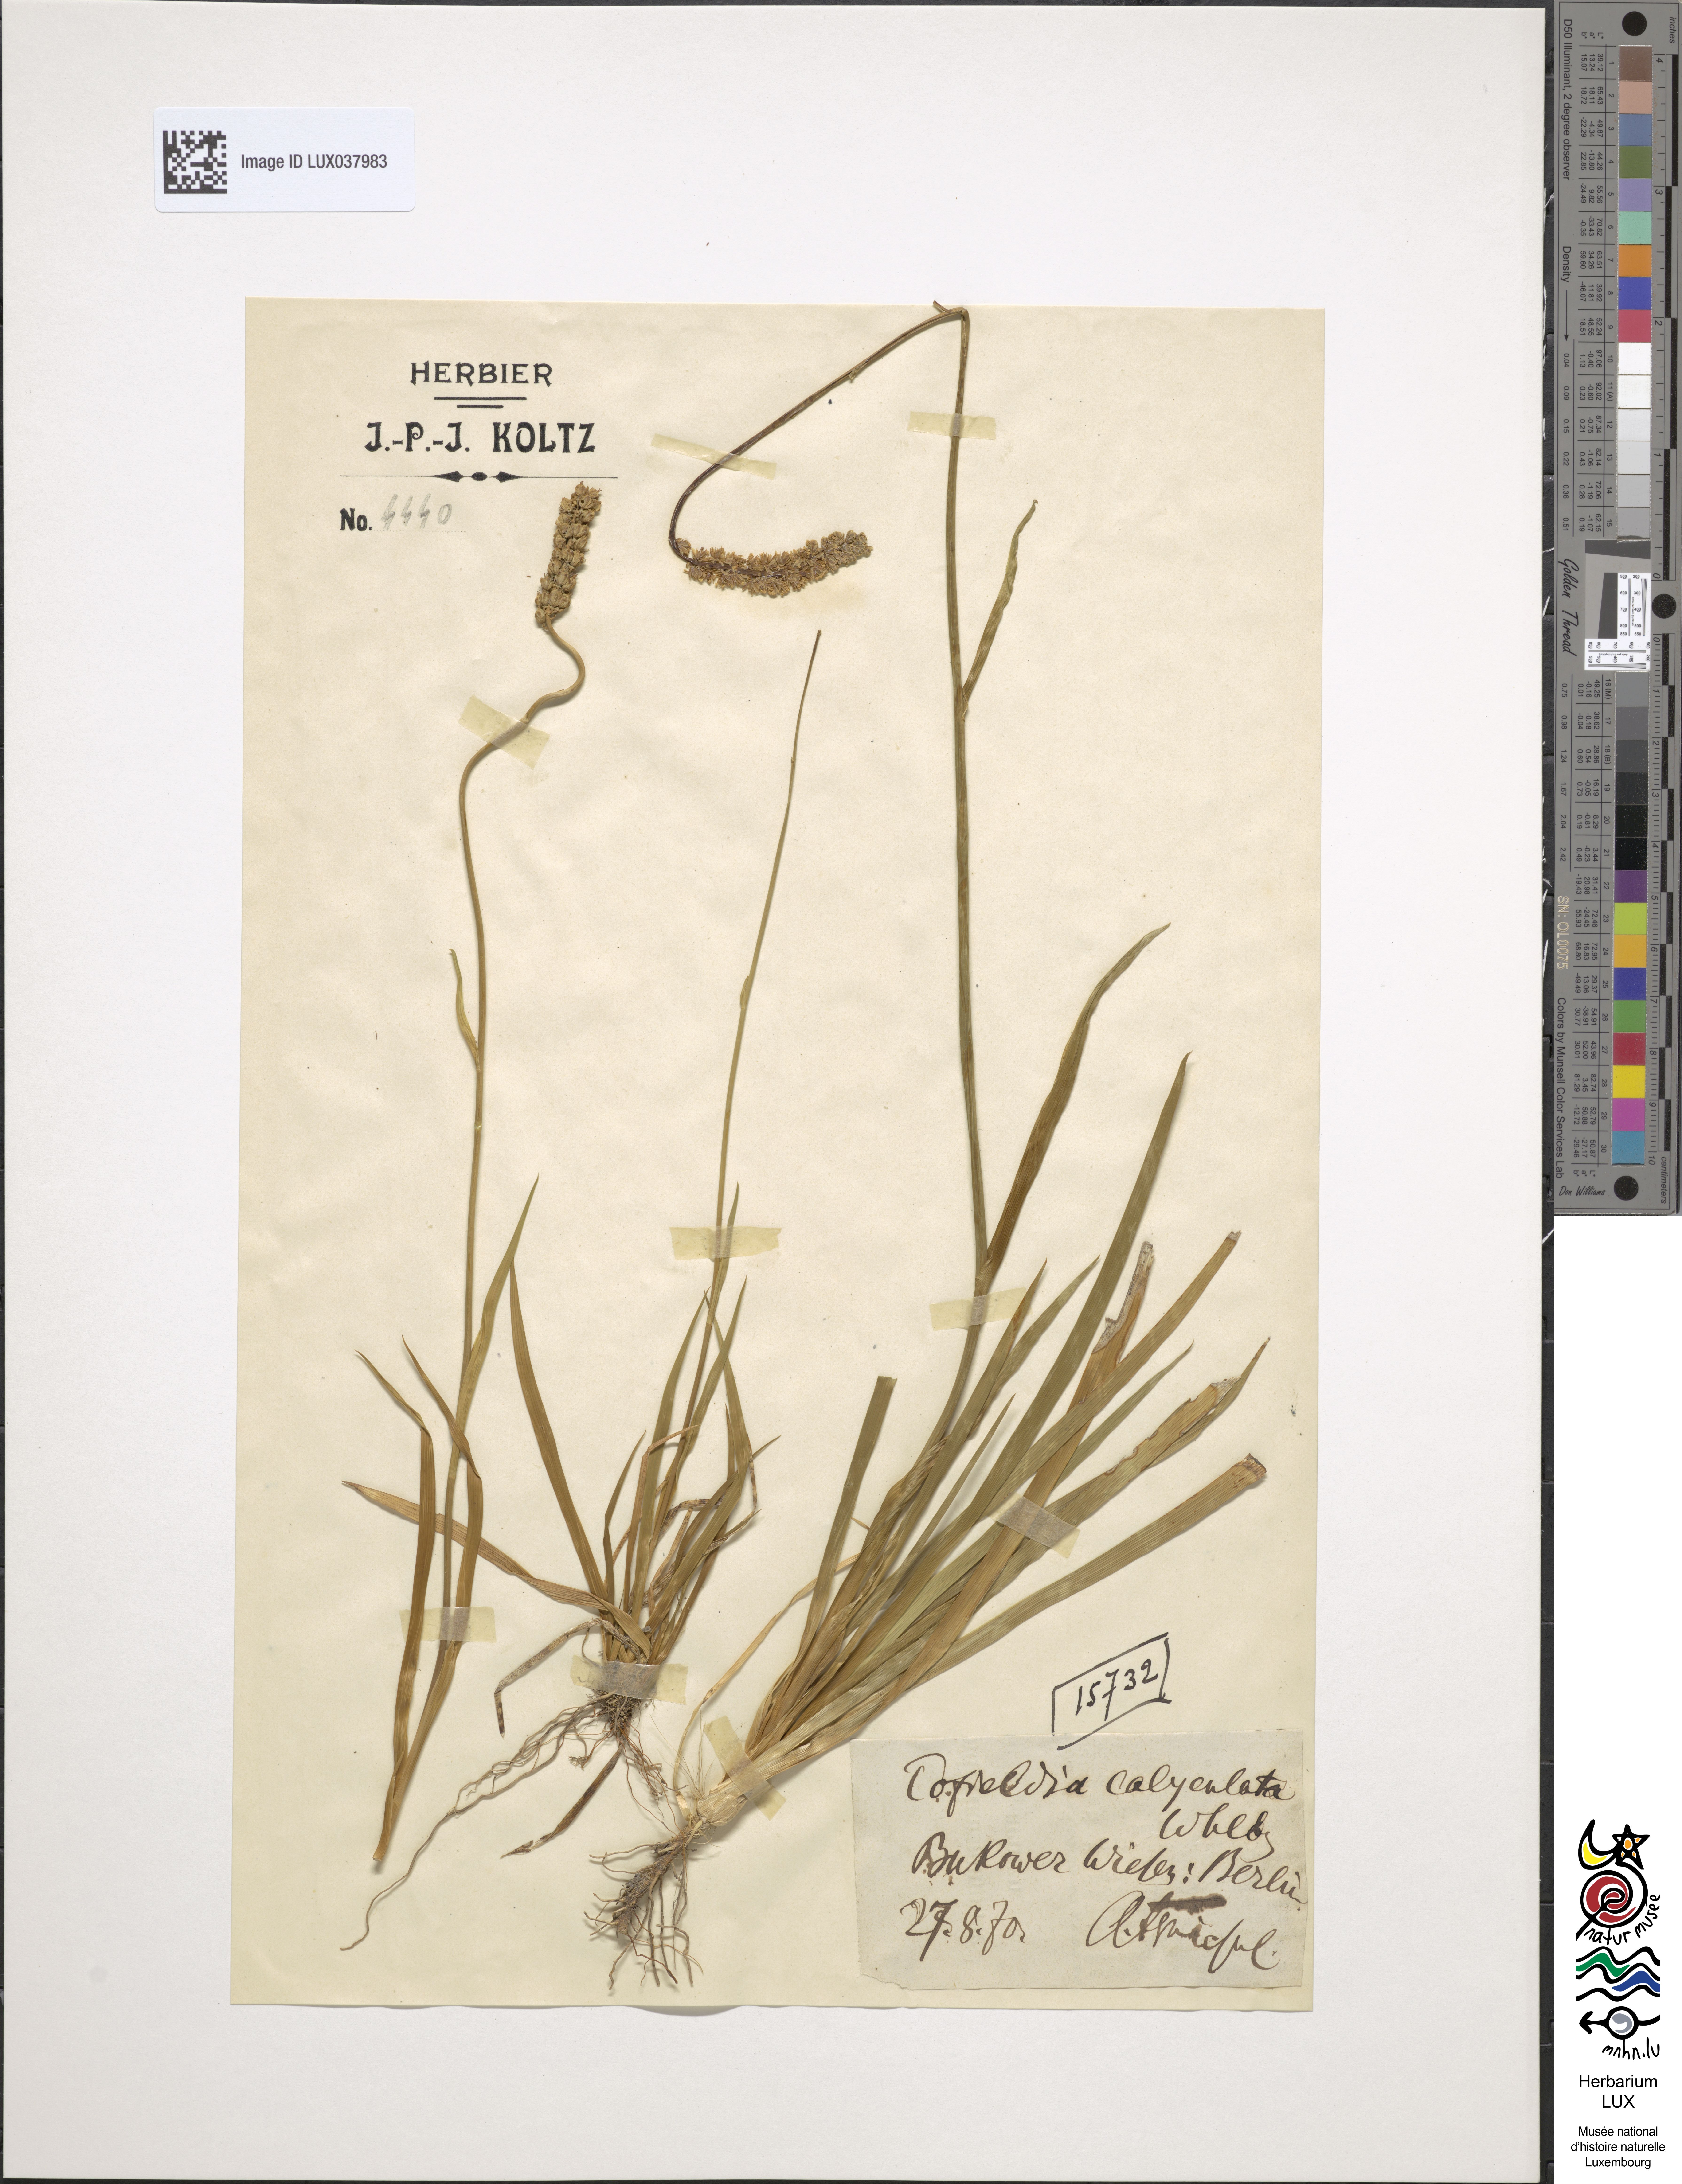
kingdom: Plantae
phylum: Tracheophyta
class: Liliopsida
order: Alismatales
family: Tofieldiaceae
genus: Tofieldia
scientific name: Tofieldia calyculata
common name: German-asphodel
